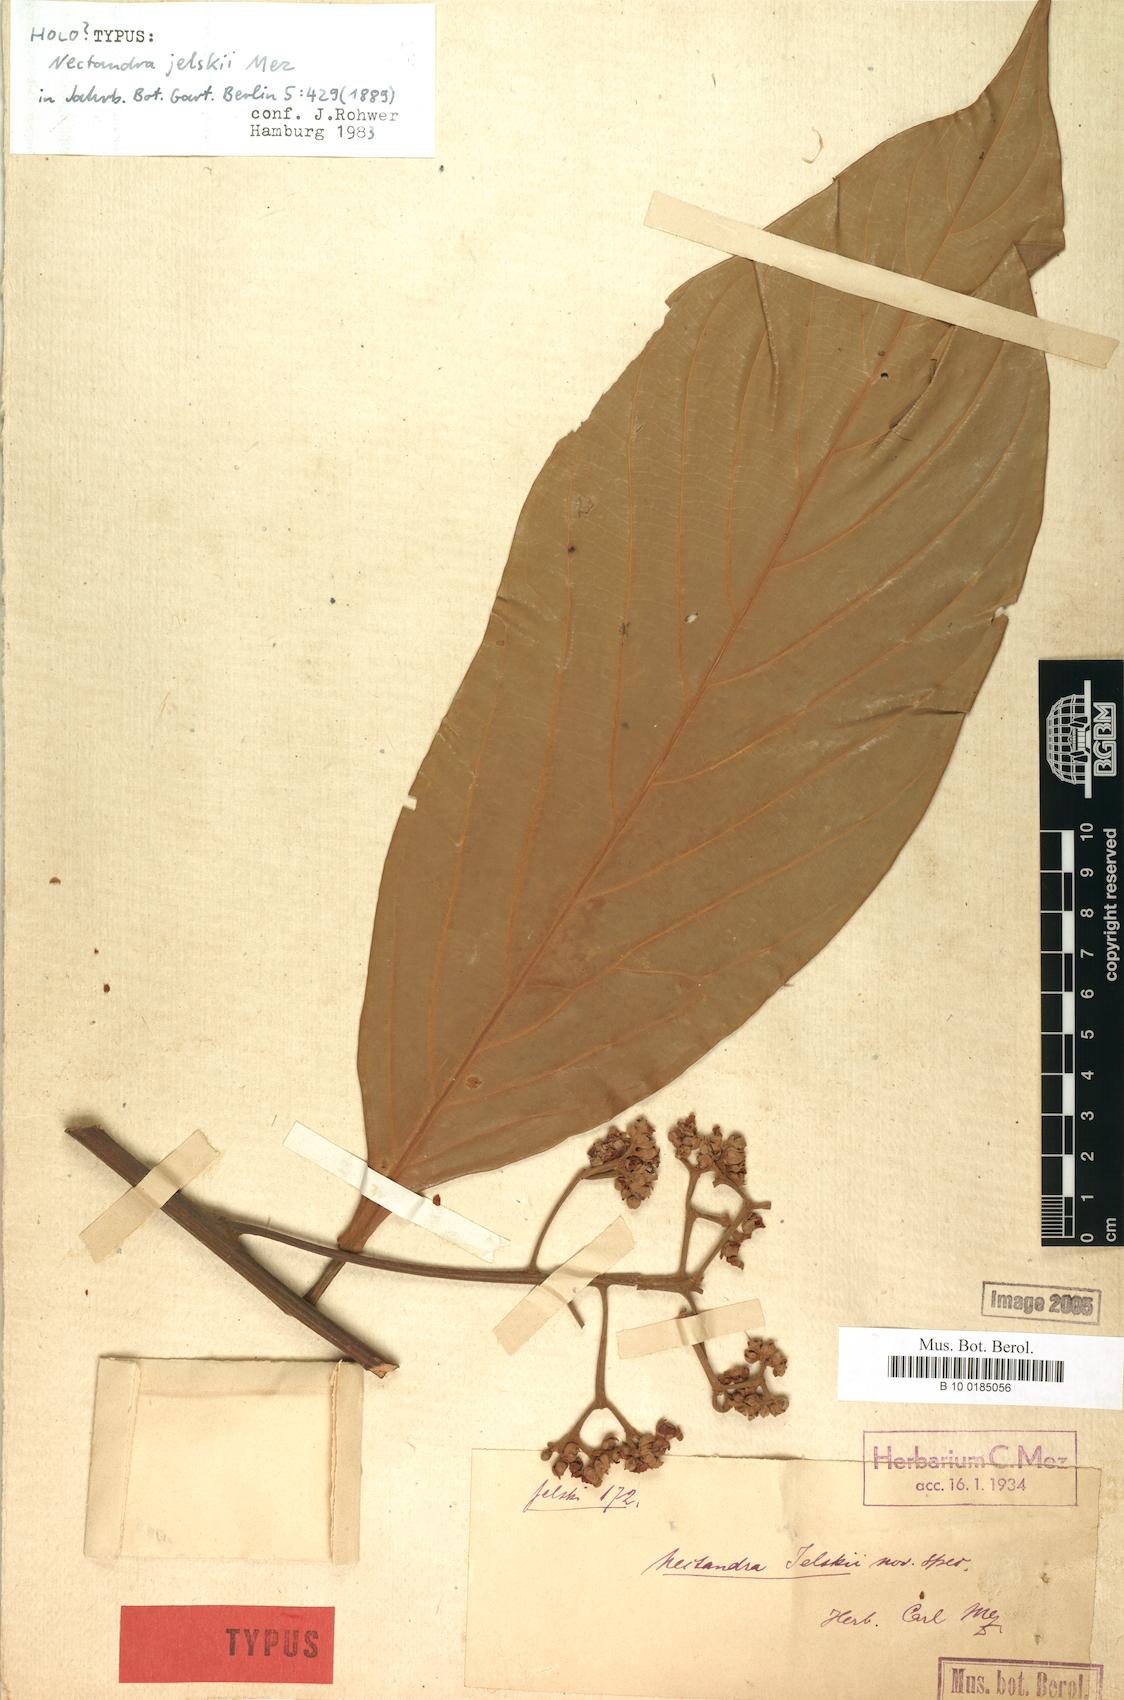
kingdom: Plantae
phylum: Tracheophyta
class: Magnoliopsida
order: Laurales
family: Lauraceae
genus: Nectandra
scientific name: Nectandra lineatifolia
